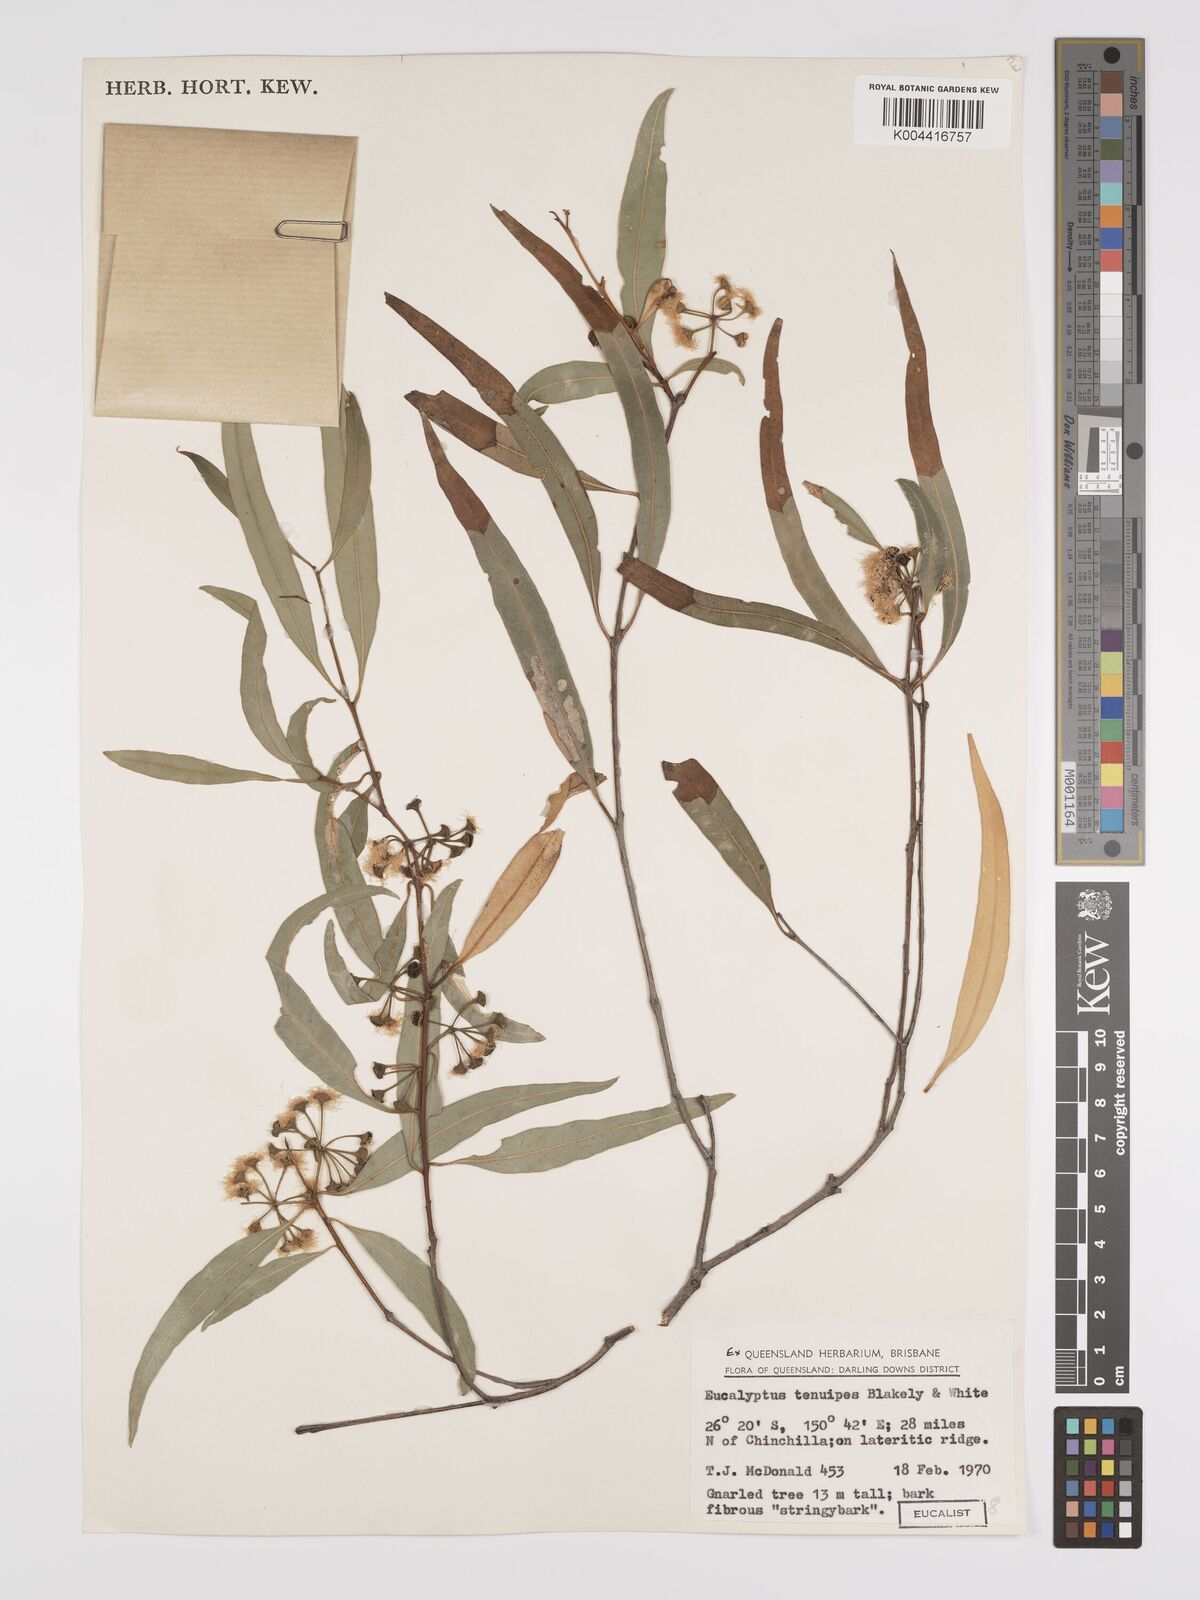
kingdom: Plantae
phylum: Tracheophyta
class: Magnoliopsida
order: Myrtales
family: Myrtaceae
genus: Eucalyptus
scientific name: Eucalyptus tenuipes
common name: Narrow-leaved white mahogany
